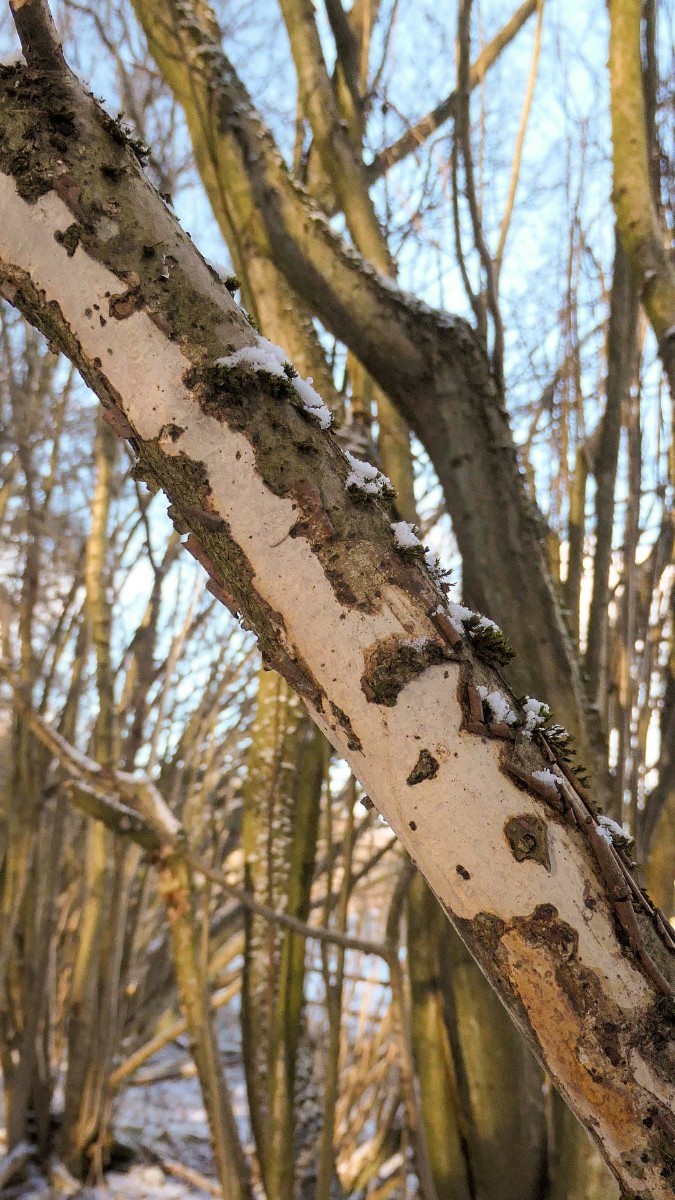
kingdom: Fungi
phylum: Basidiomycota
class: Agaricomycetes
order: Corticiales
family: Vuilleminiaceae
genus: Vuilleminia
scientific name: Vuilleminia coryli
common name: hassel-barksprænger
